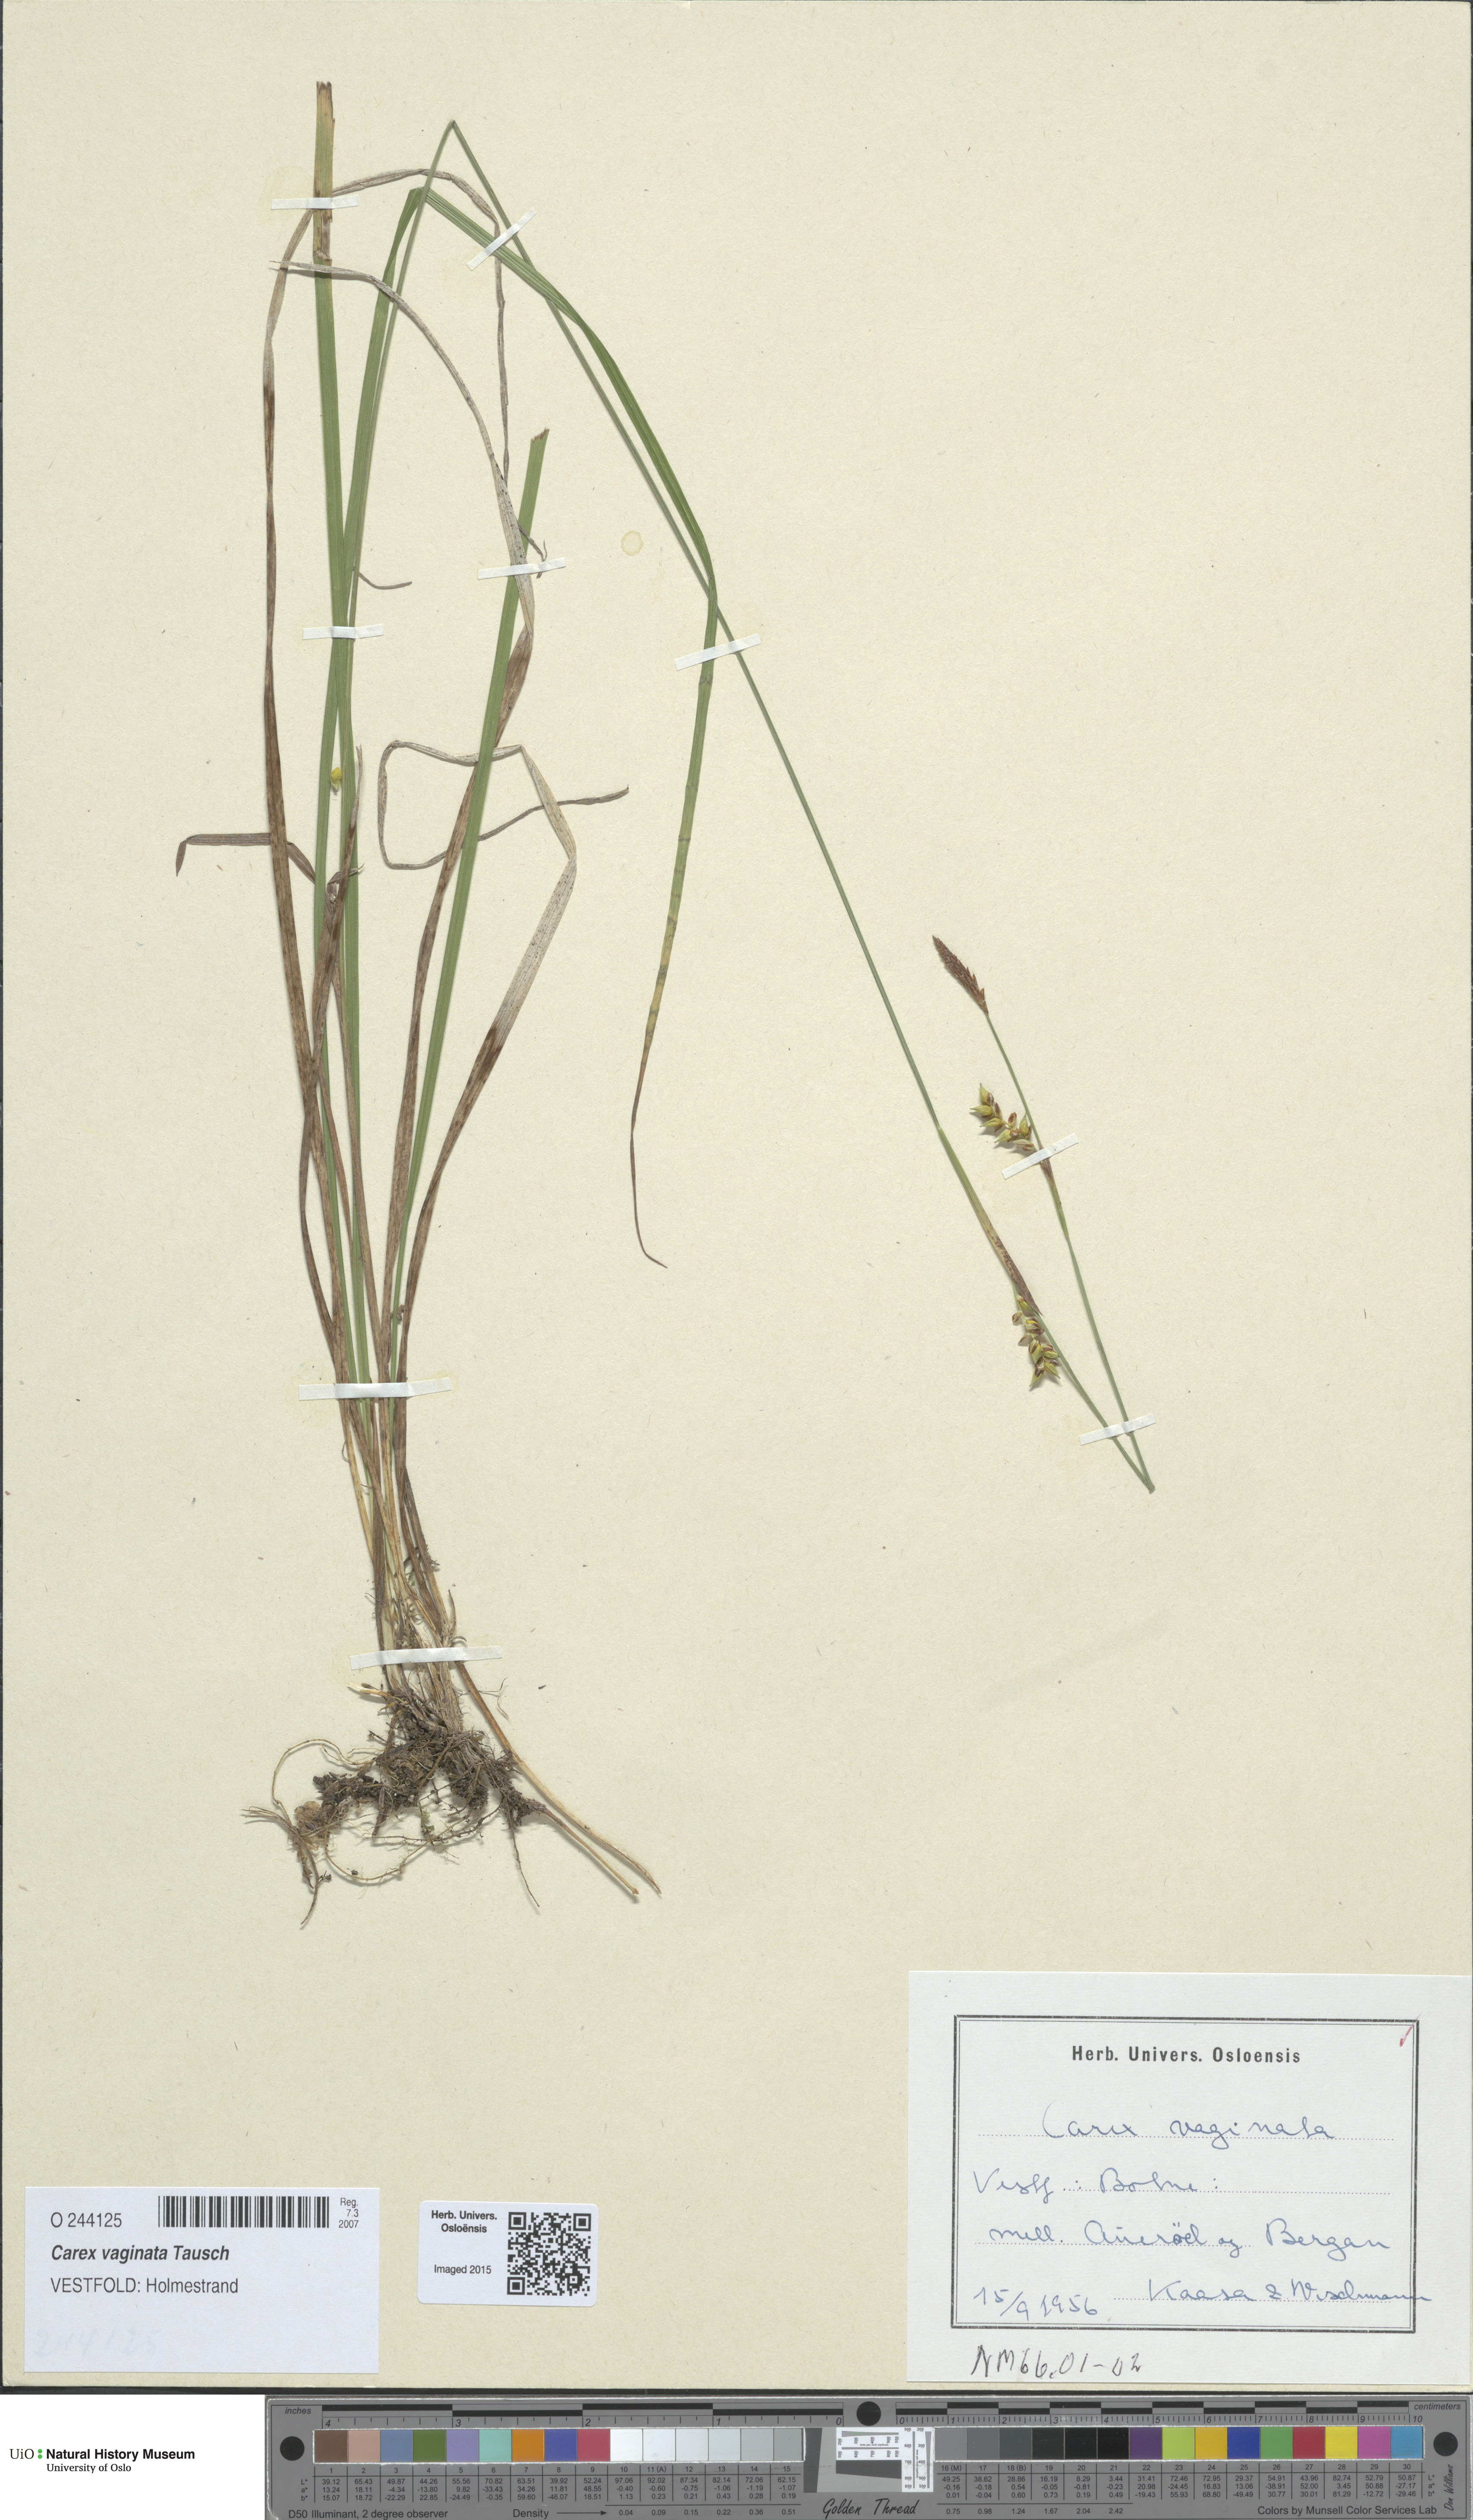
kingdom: Plantae
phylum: Tracheophyta
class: Liliopsida
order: Poales
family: Cyperaceae
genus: Carex
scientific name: Carex vaginata
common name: Sheathed sedge
